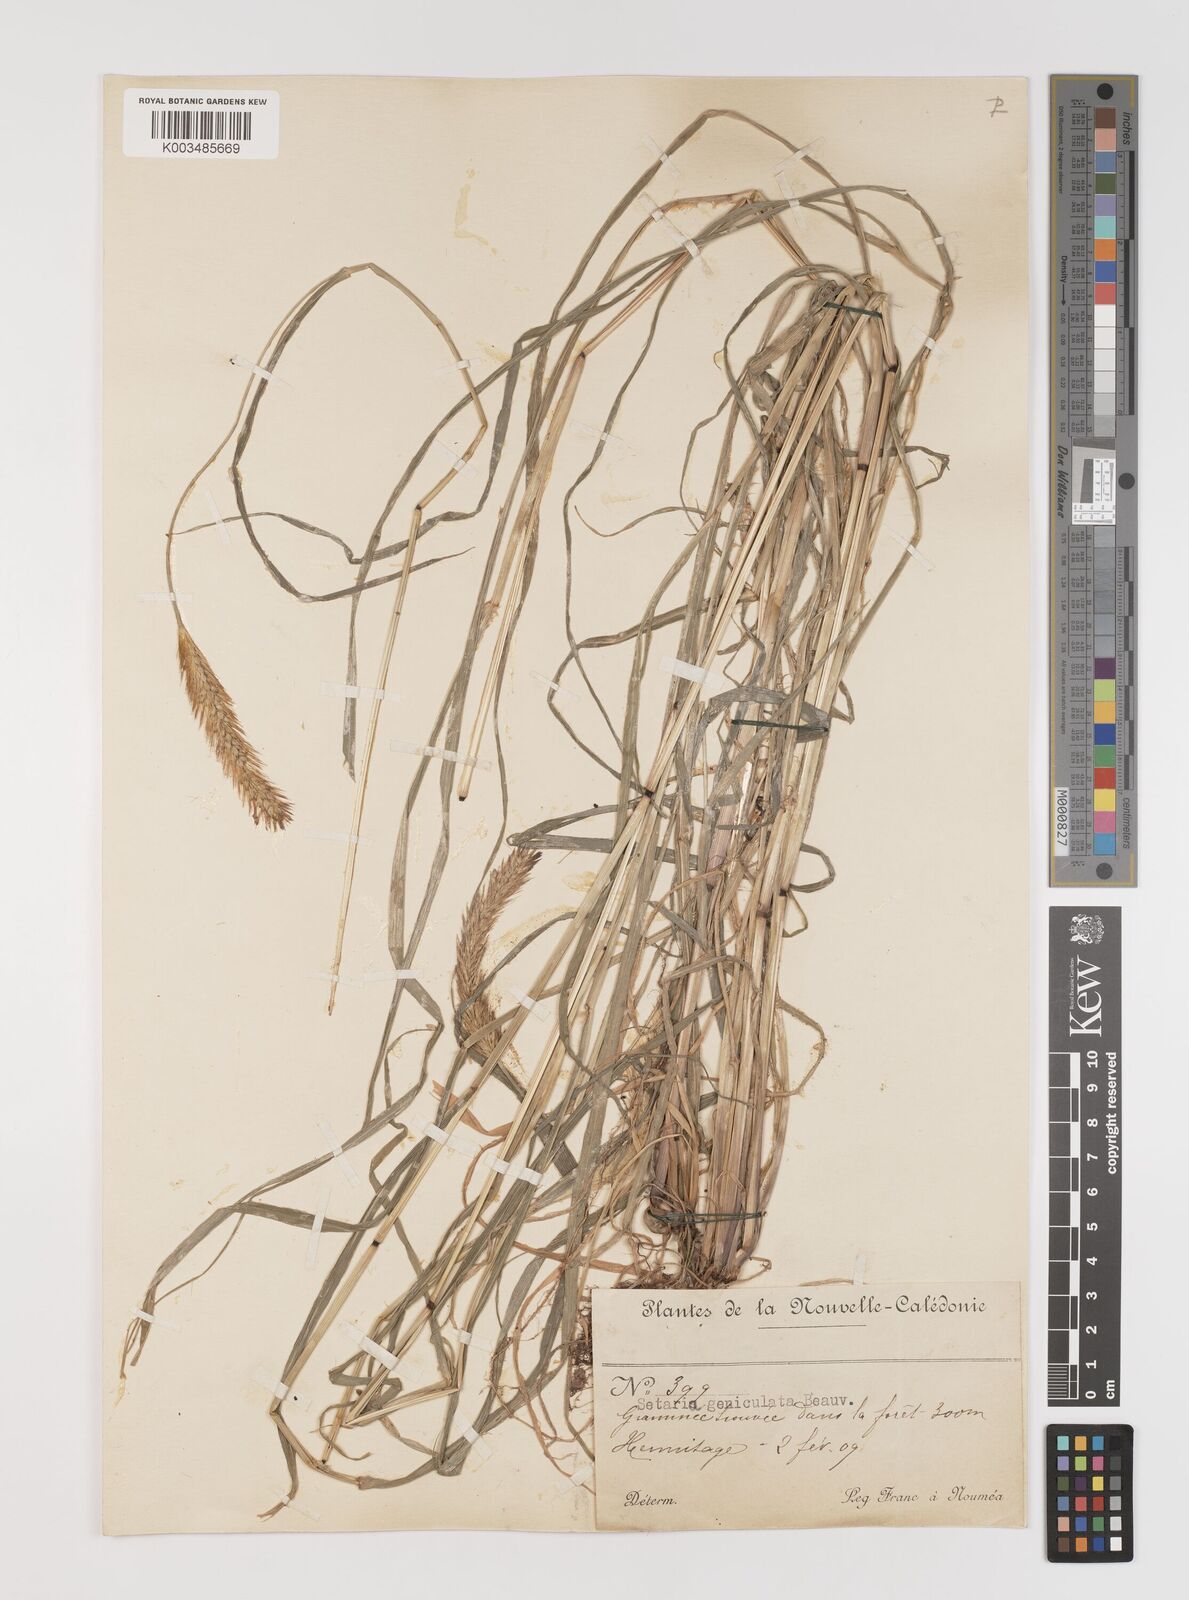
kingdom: Plantae
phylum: Tracheophyta
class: Liliopsida
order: Poales
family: Poaceae
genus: Setaria
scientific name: Setaria parviflora
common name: Knotroot bristle-grass
